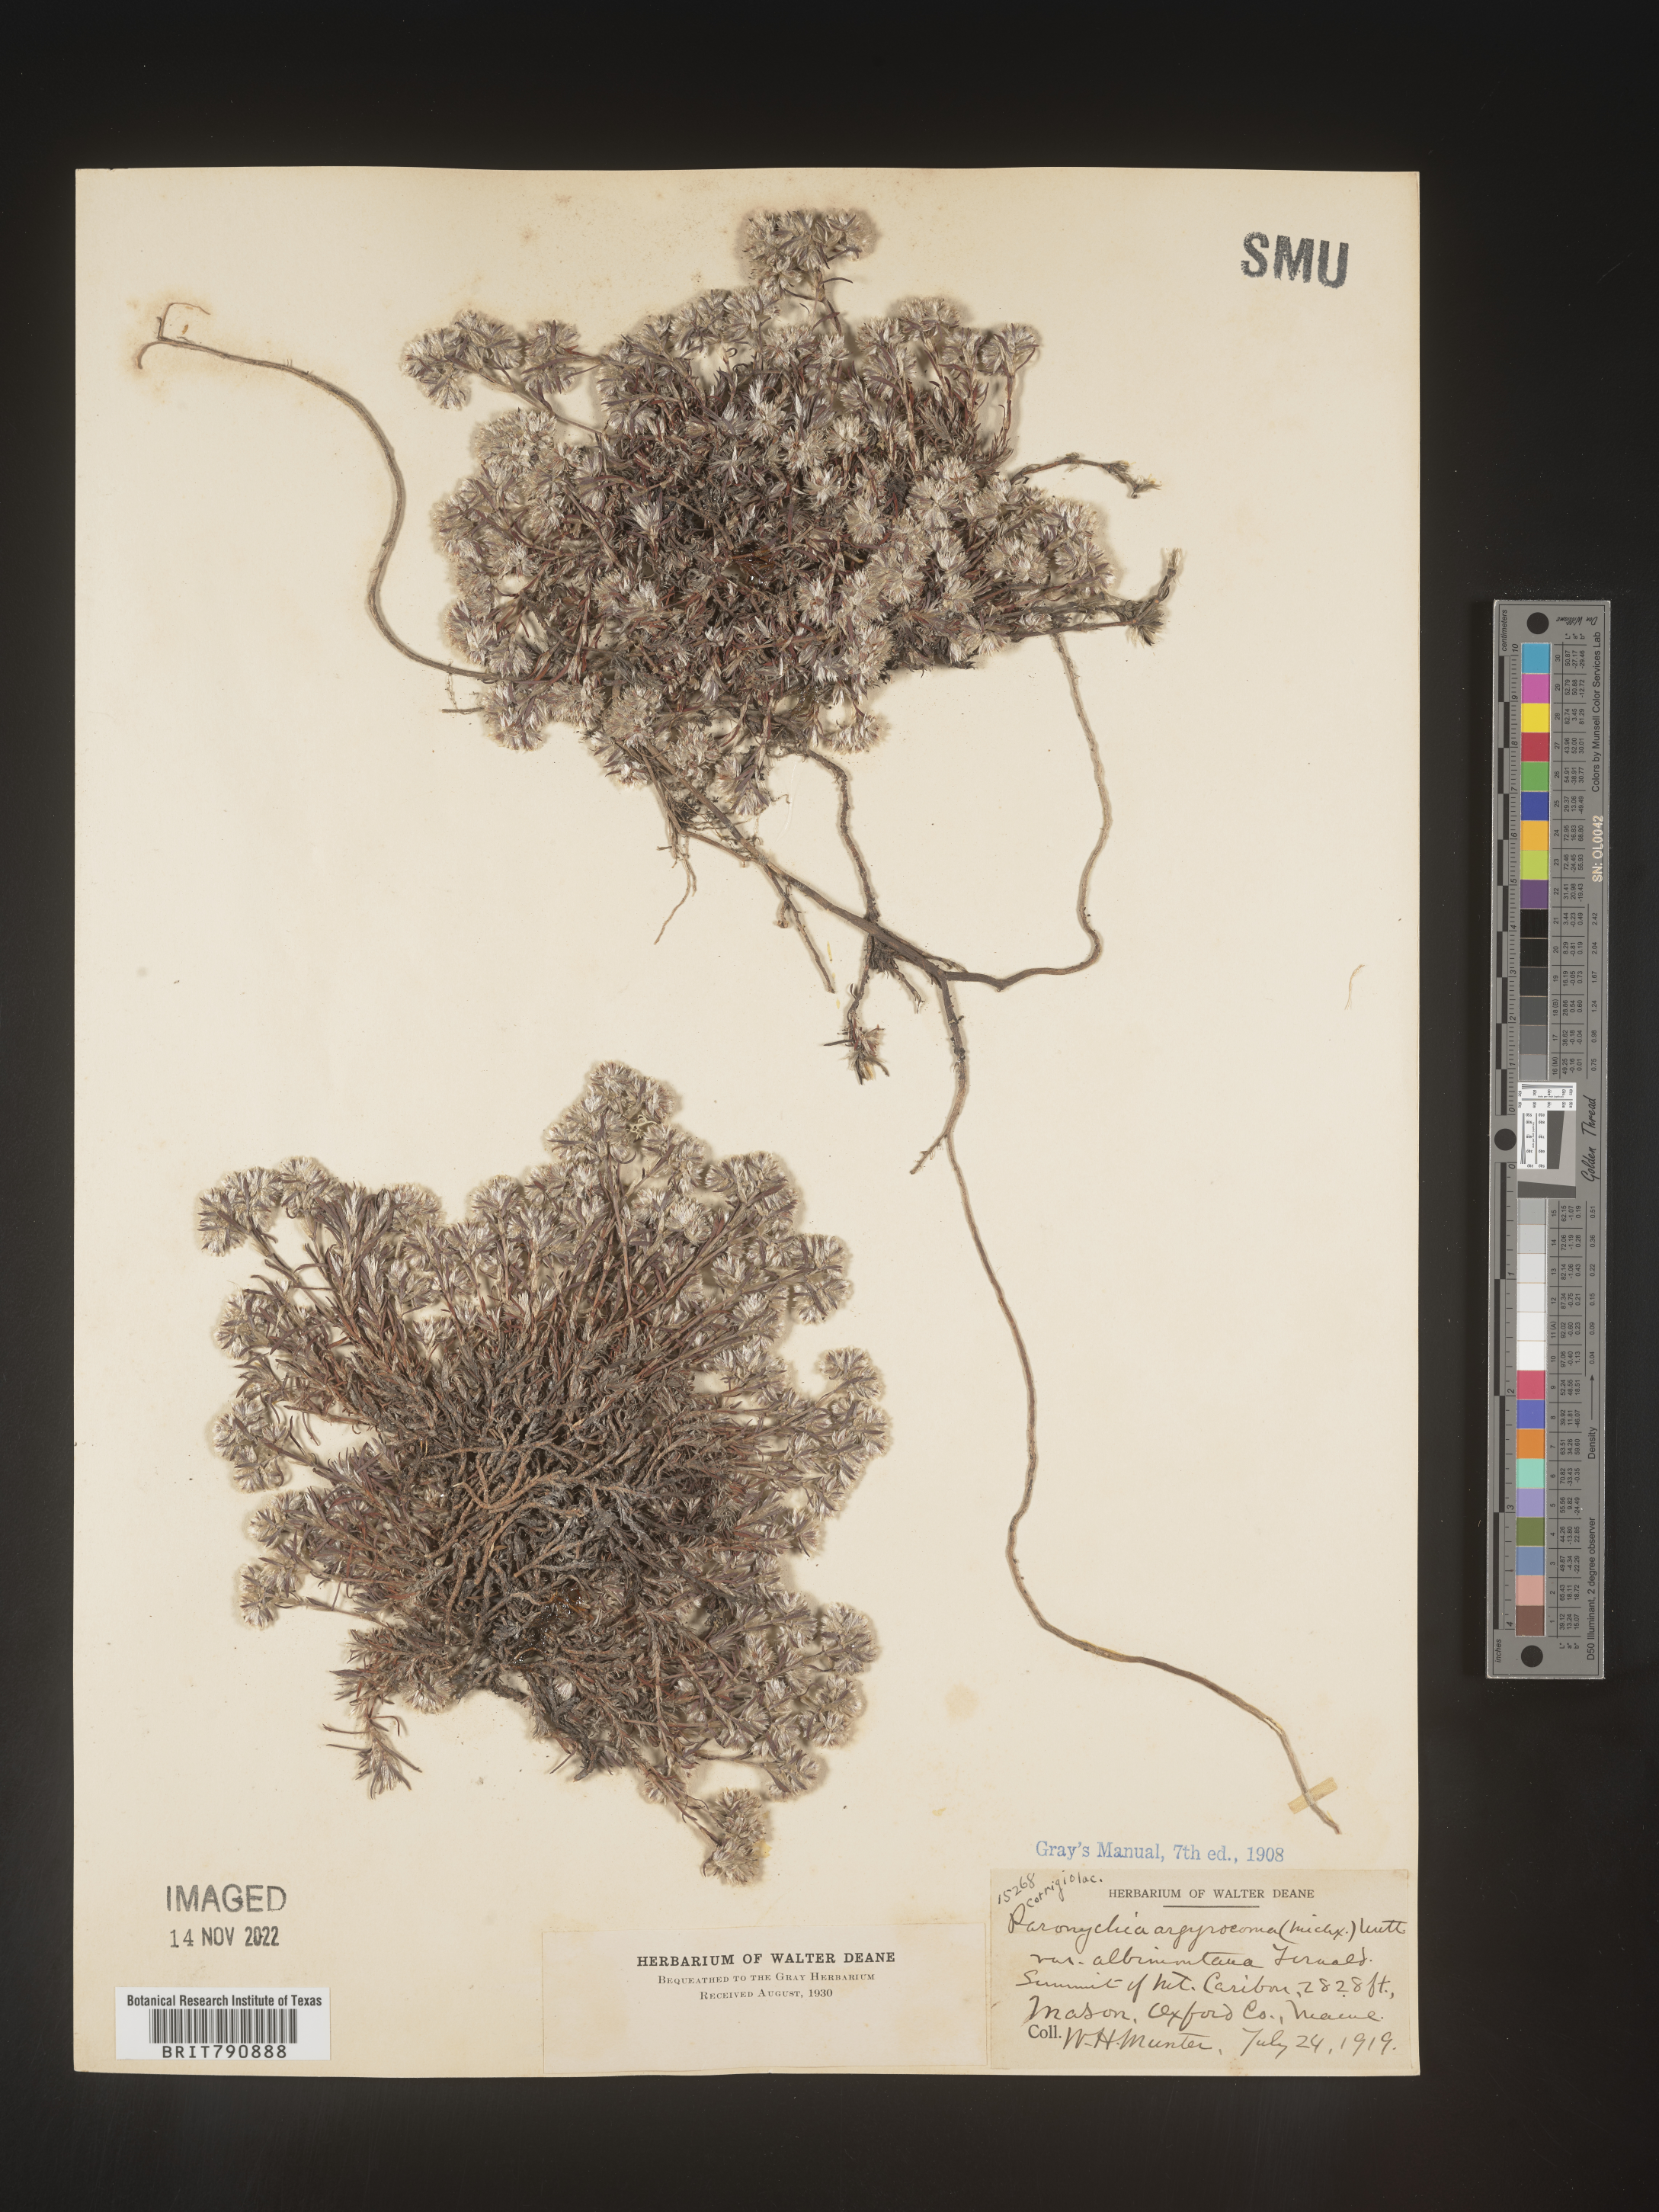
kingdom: Plantae
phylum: Tracheophyta
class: Magnoliopsida
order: Caryophyllales
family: Caryophyllaceae
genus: Paronychia
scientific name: Paronychia argyrocoma
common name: Silverling
